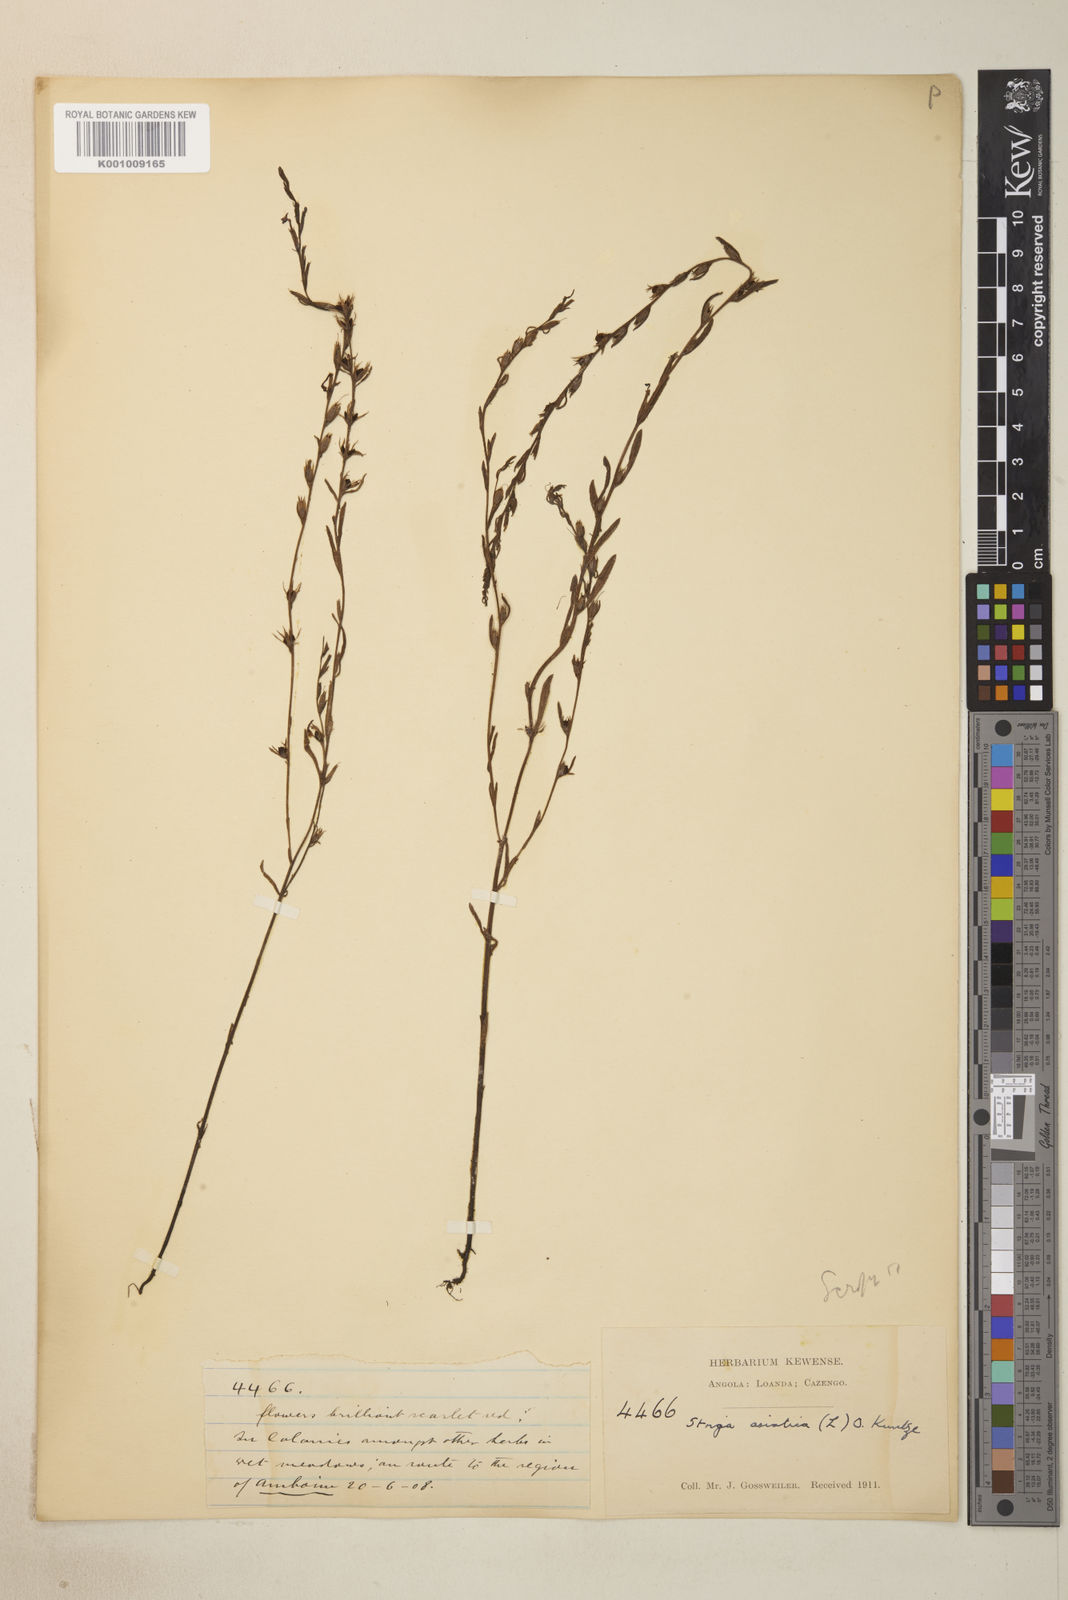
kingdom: Plantae
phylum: Tracheophyta
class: Magnoliopsida
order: Lamiales
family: Orobanchaceae
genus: Striga
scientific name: Striga asiatica
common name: Asiatic witchweed
